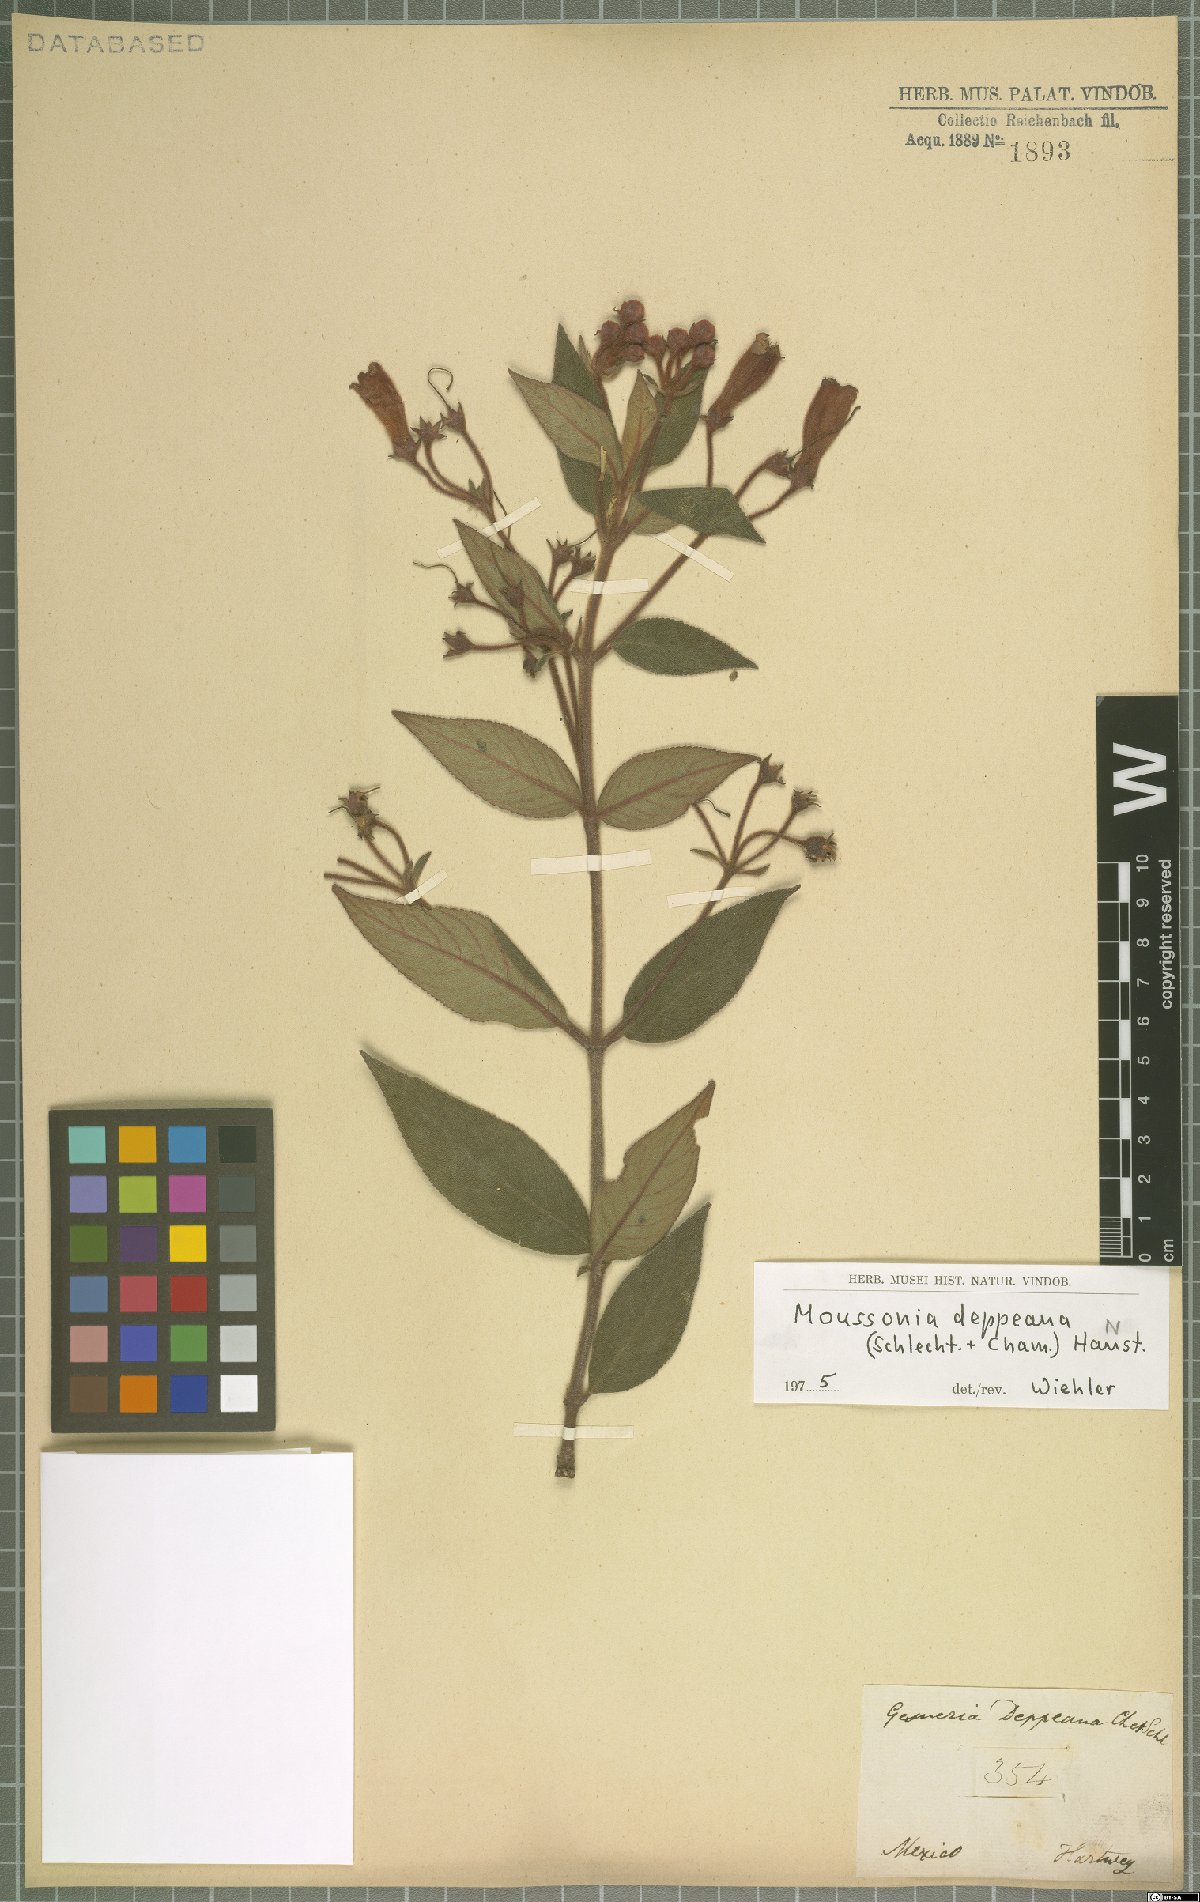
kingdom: Plantae
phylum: Tracheophyta
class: Magnoliopsida
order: Lamiales
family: Gesneriaceae
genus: Moussonia
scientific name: Moussonia deppeana
